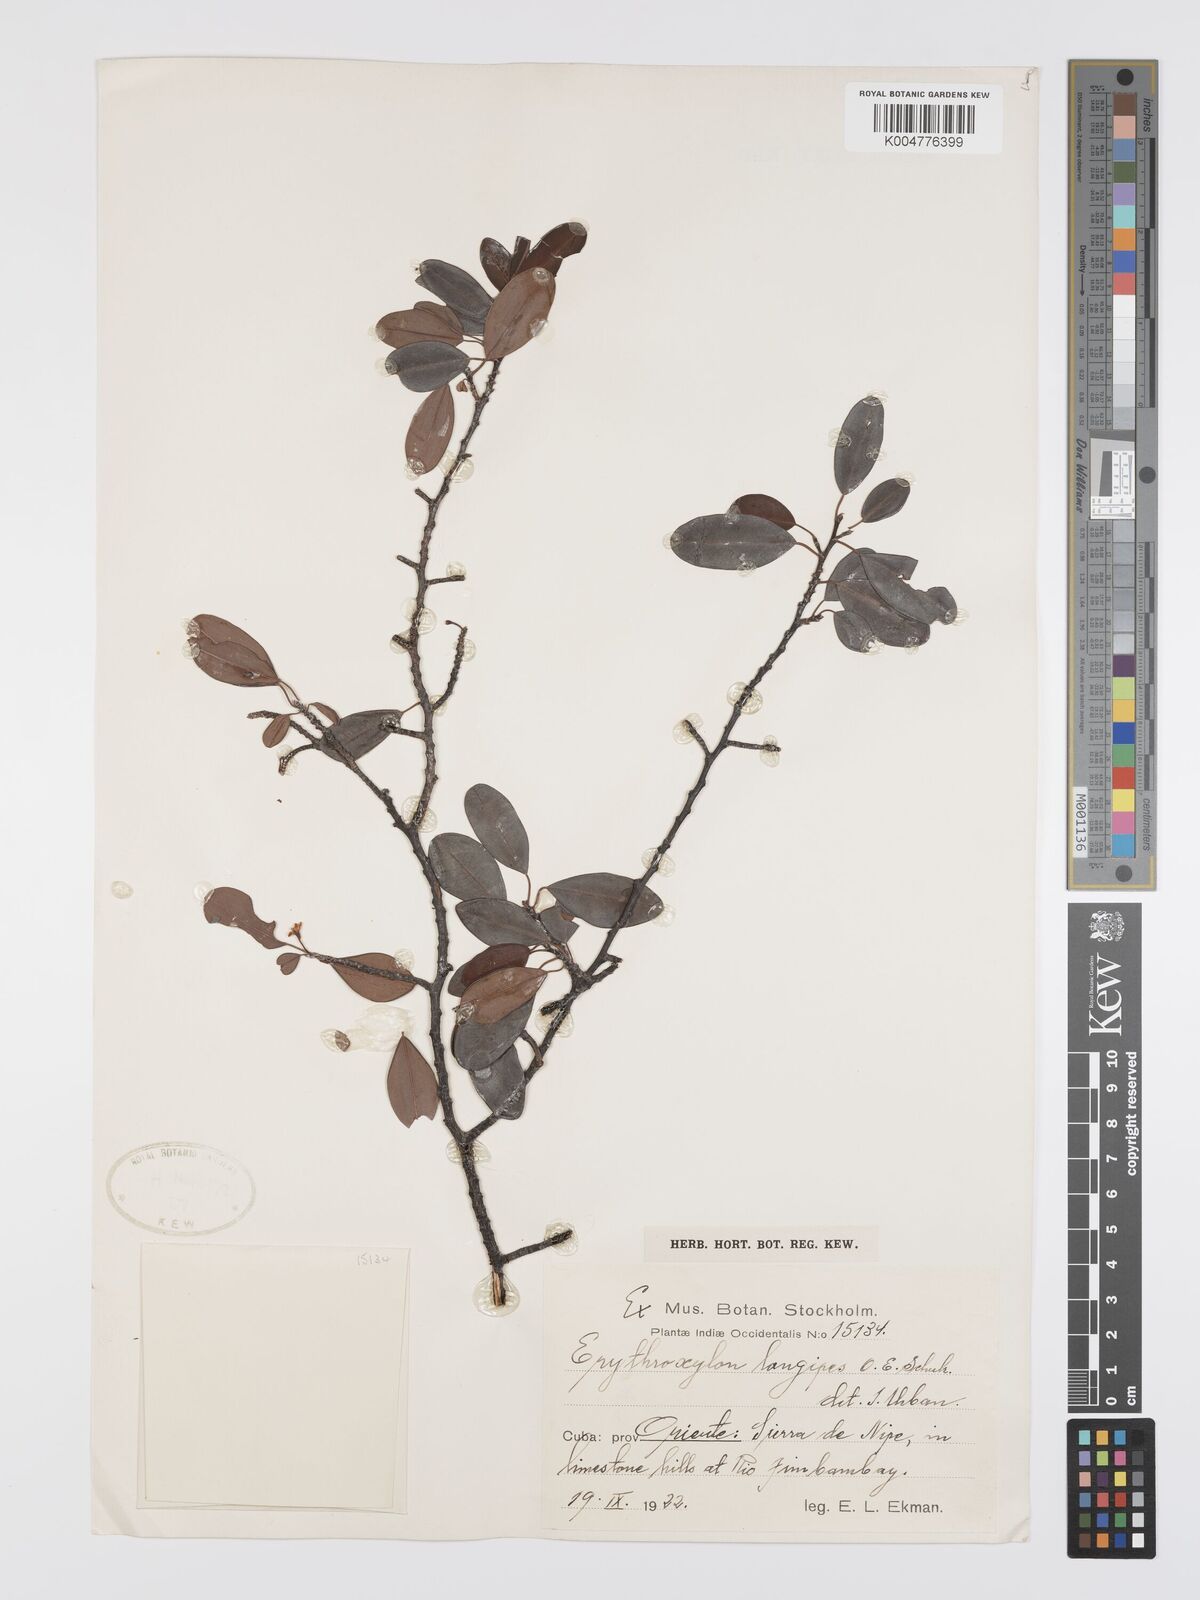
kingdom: Plantae
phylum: Tracheophyta
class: Magnoliopsida
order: Malpighiales
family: Erythroxylaceae
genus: Erythroxylum
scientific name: Erythroxylum longipes
